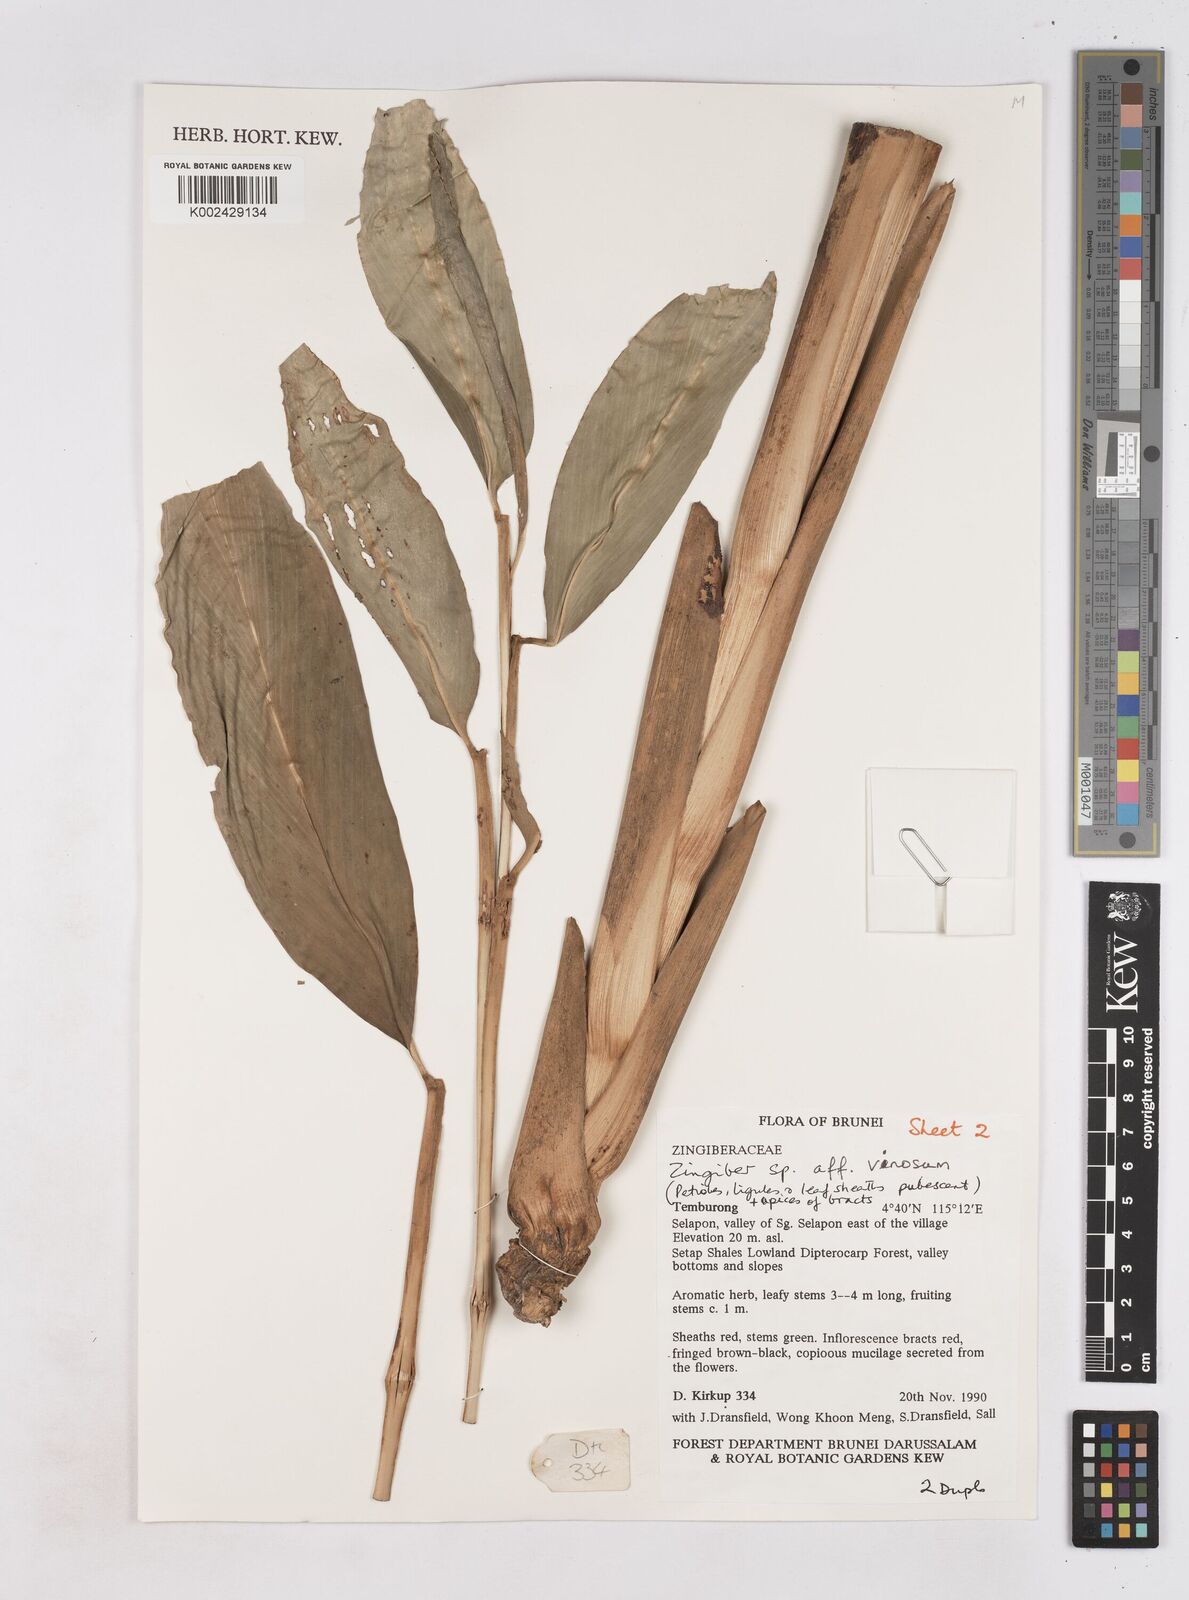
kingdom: Plantae
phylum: Tracheophyta
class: Liliopsida
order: Zingiberales
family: Zingiberaceae
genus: Zingiber
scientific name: Zingiber vinosum
